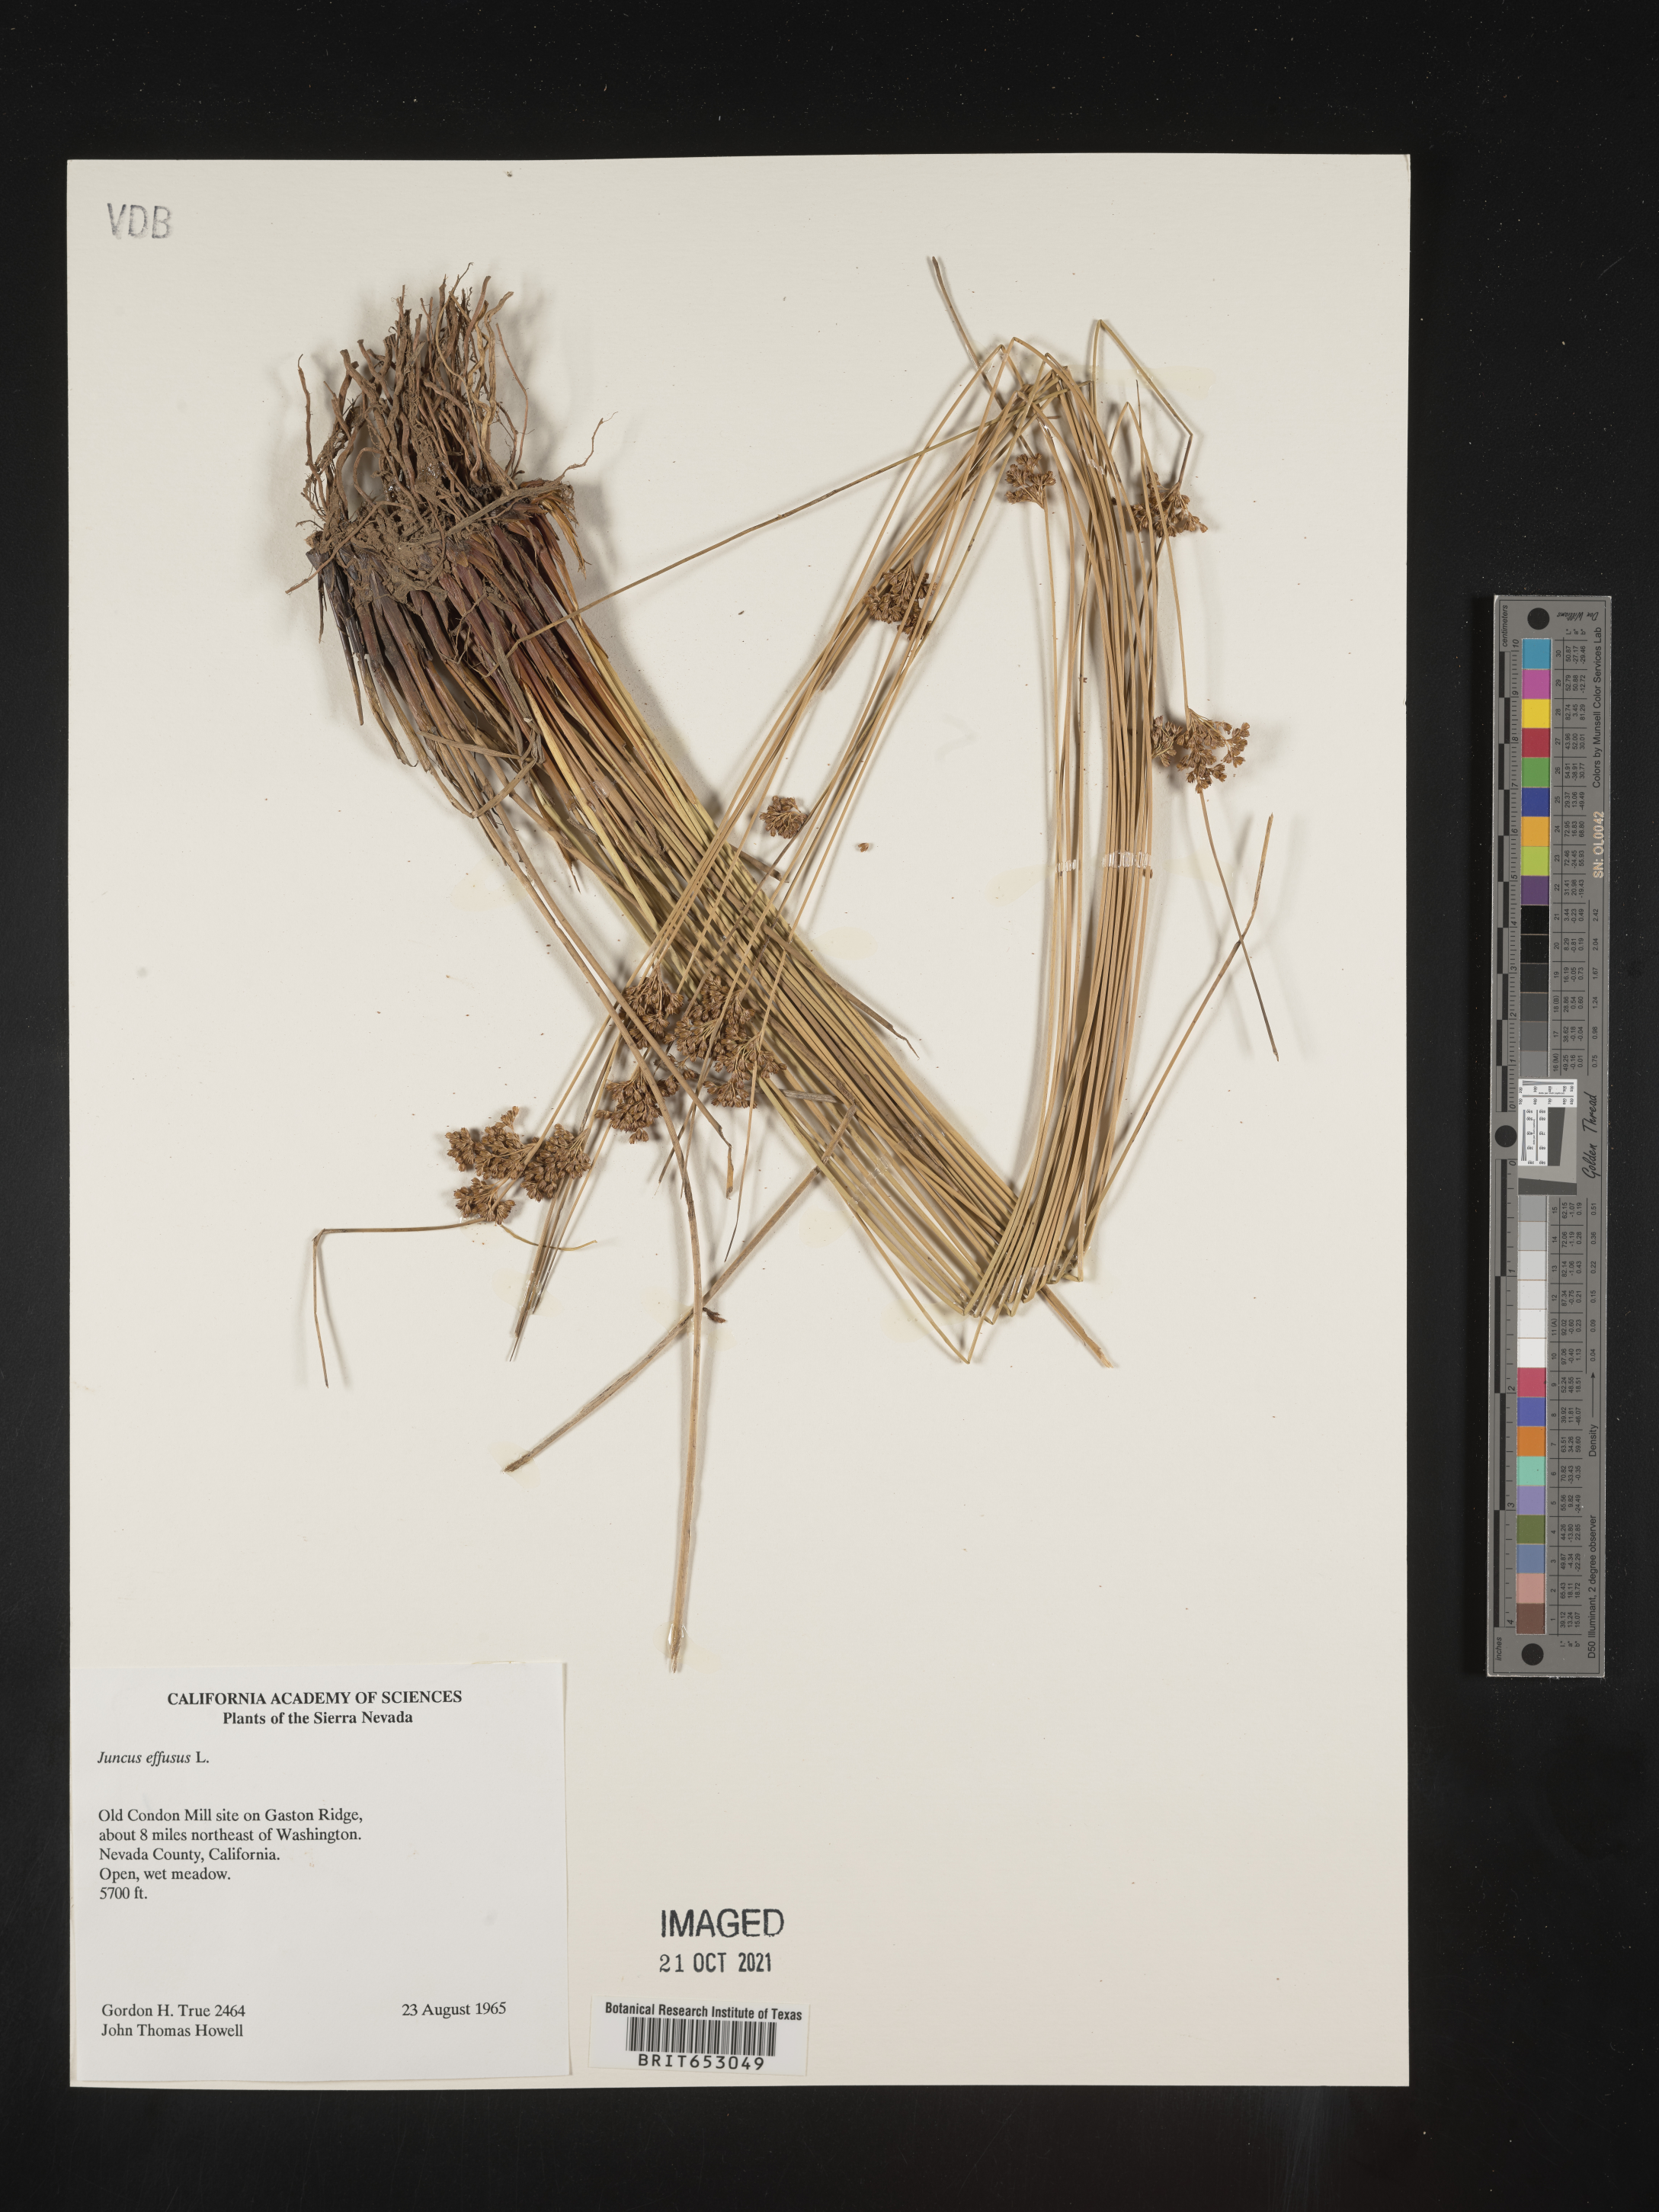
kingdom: Plantae
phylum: Tracheophyta
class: Liliopsida
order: Poales
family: Juncaceae
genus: Juncus
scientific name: Juncus effusus
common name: Soft rush
